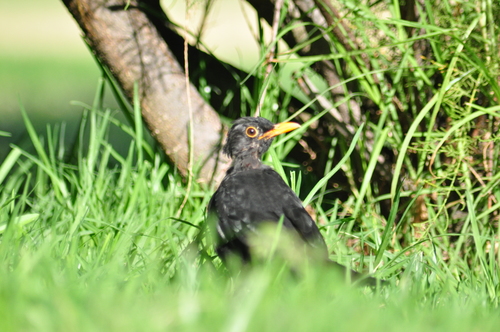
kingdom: Animalia
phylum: Chordata
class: Aves
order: Passeriformes
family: Turdidae
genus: Turdus
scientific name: Turdus merula
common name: Common blackbird
